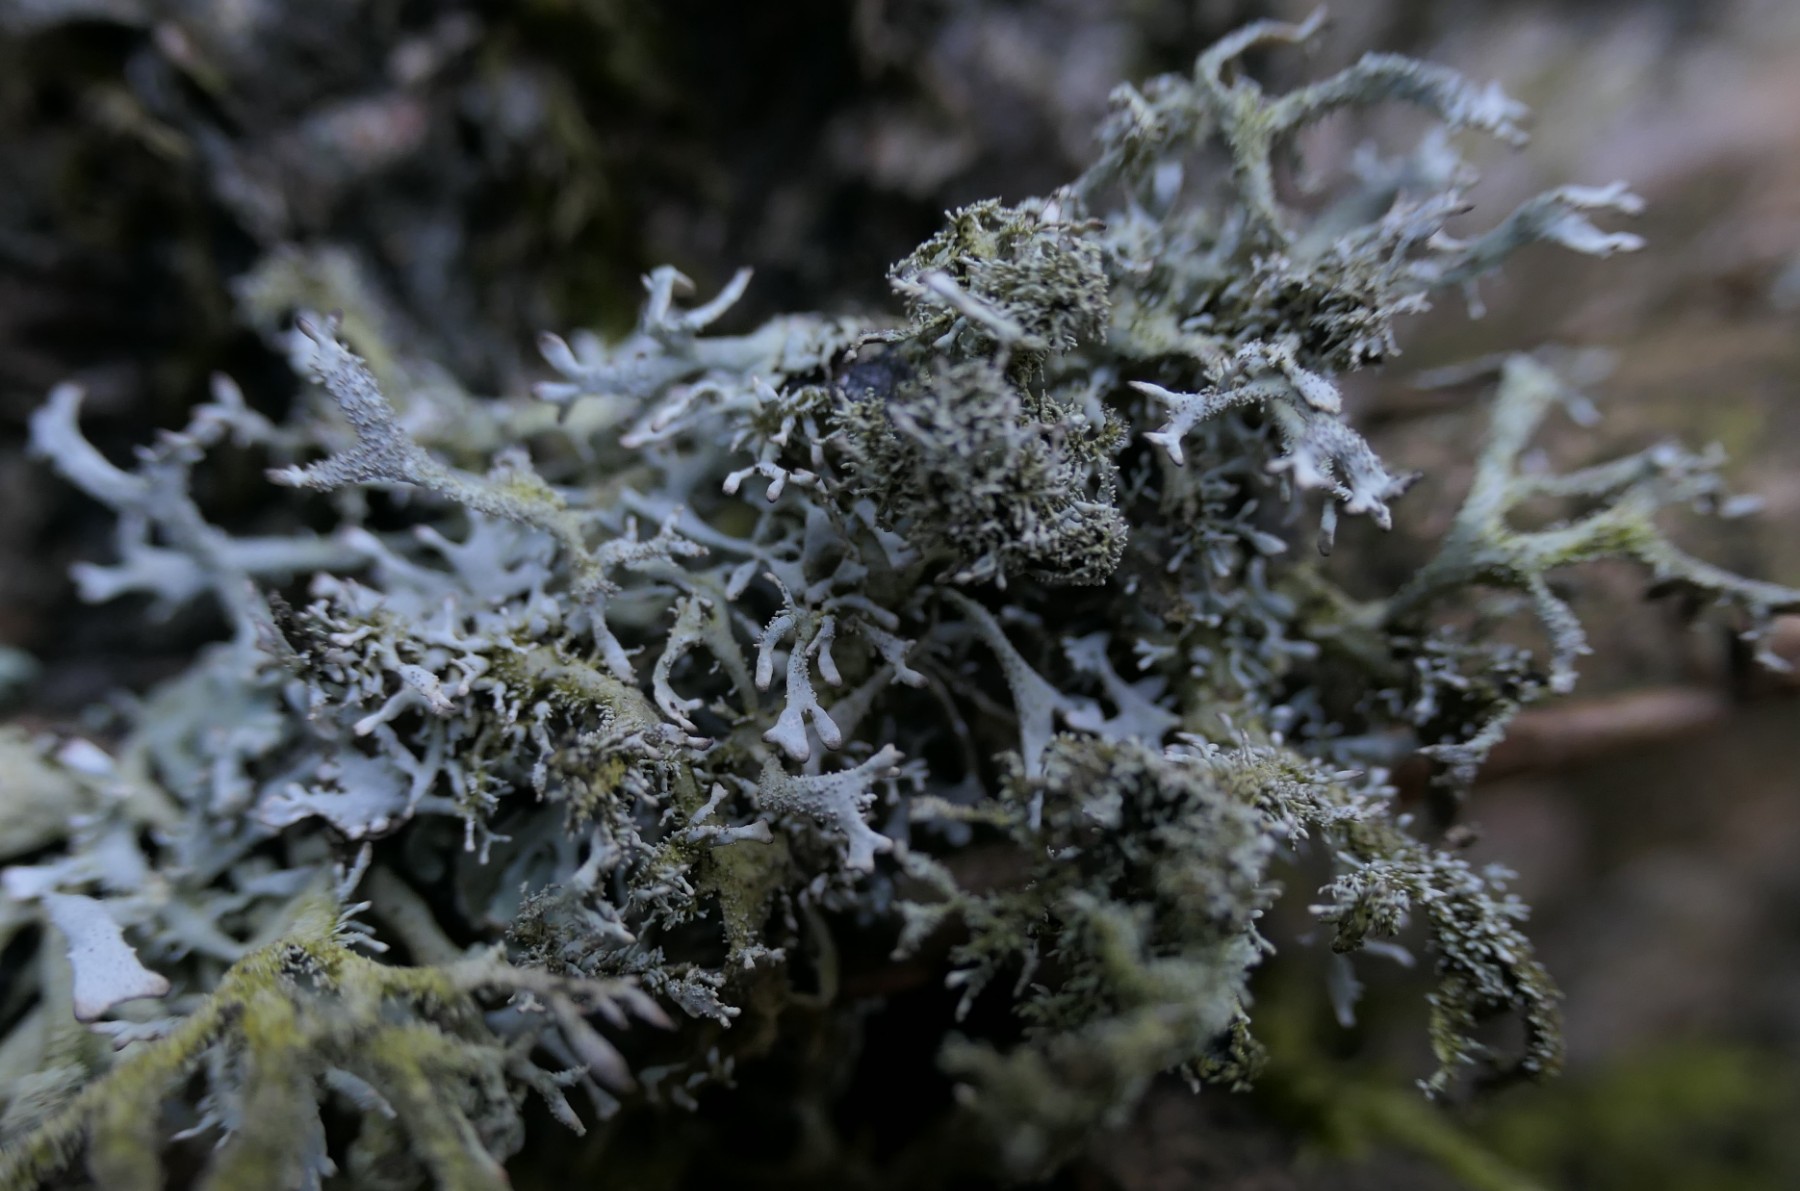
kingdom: Fungi
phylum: Ascomycota
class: Lecanoromycetes
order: Lecanorales
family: Parmeliaceae
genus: Pseudevernia
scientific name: Pseudevernia furfuracea
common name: grå fyrrelav
